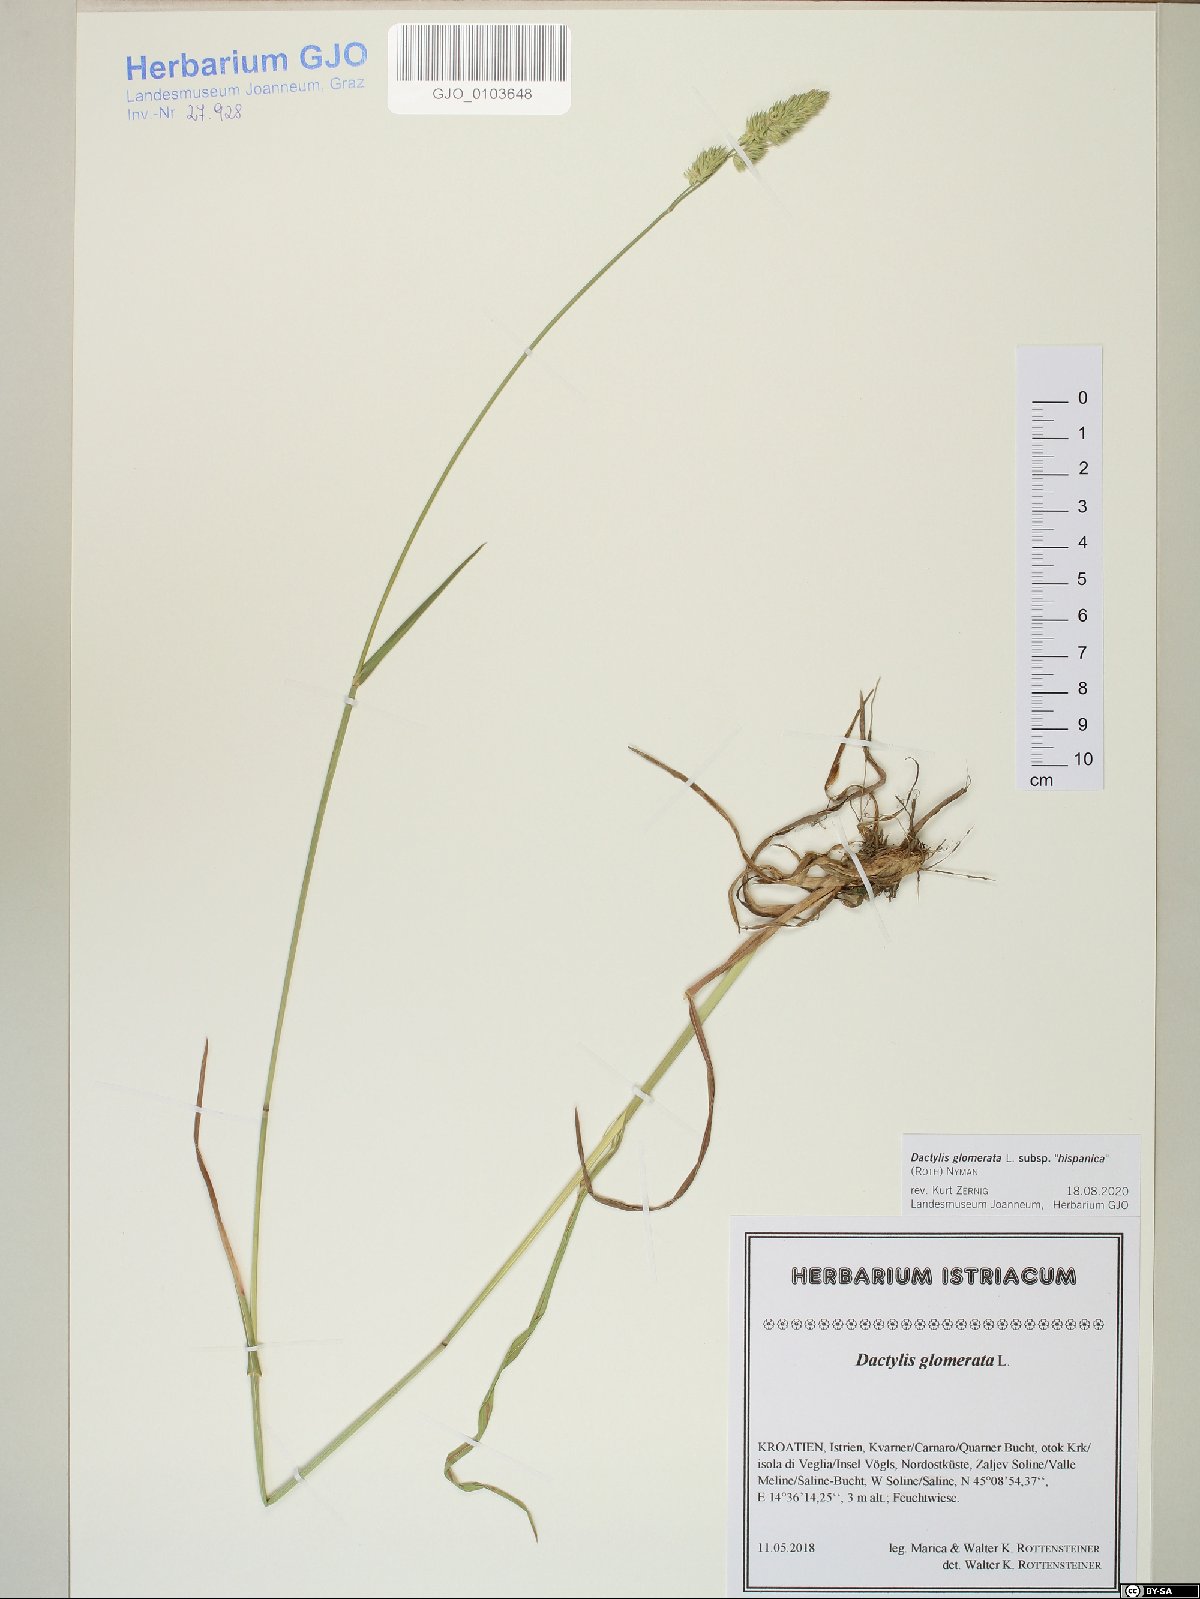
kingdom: Plantae
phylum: Tracheophyta
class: Liliopsida
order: Poales
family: Poaceae
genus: Dactylis
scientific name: Dactylis glomerata
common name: Orchardgrass
